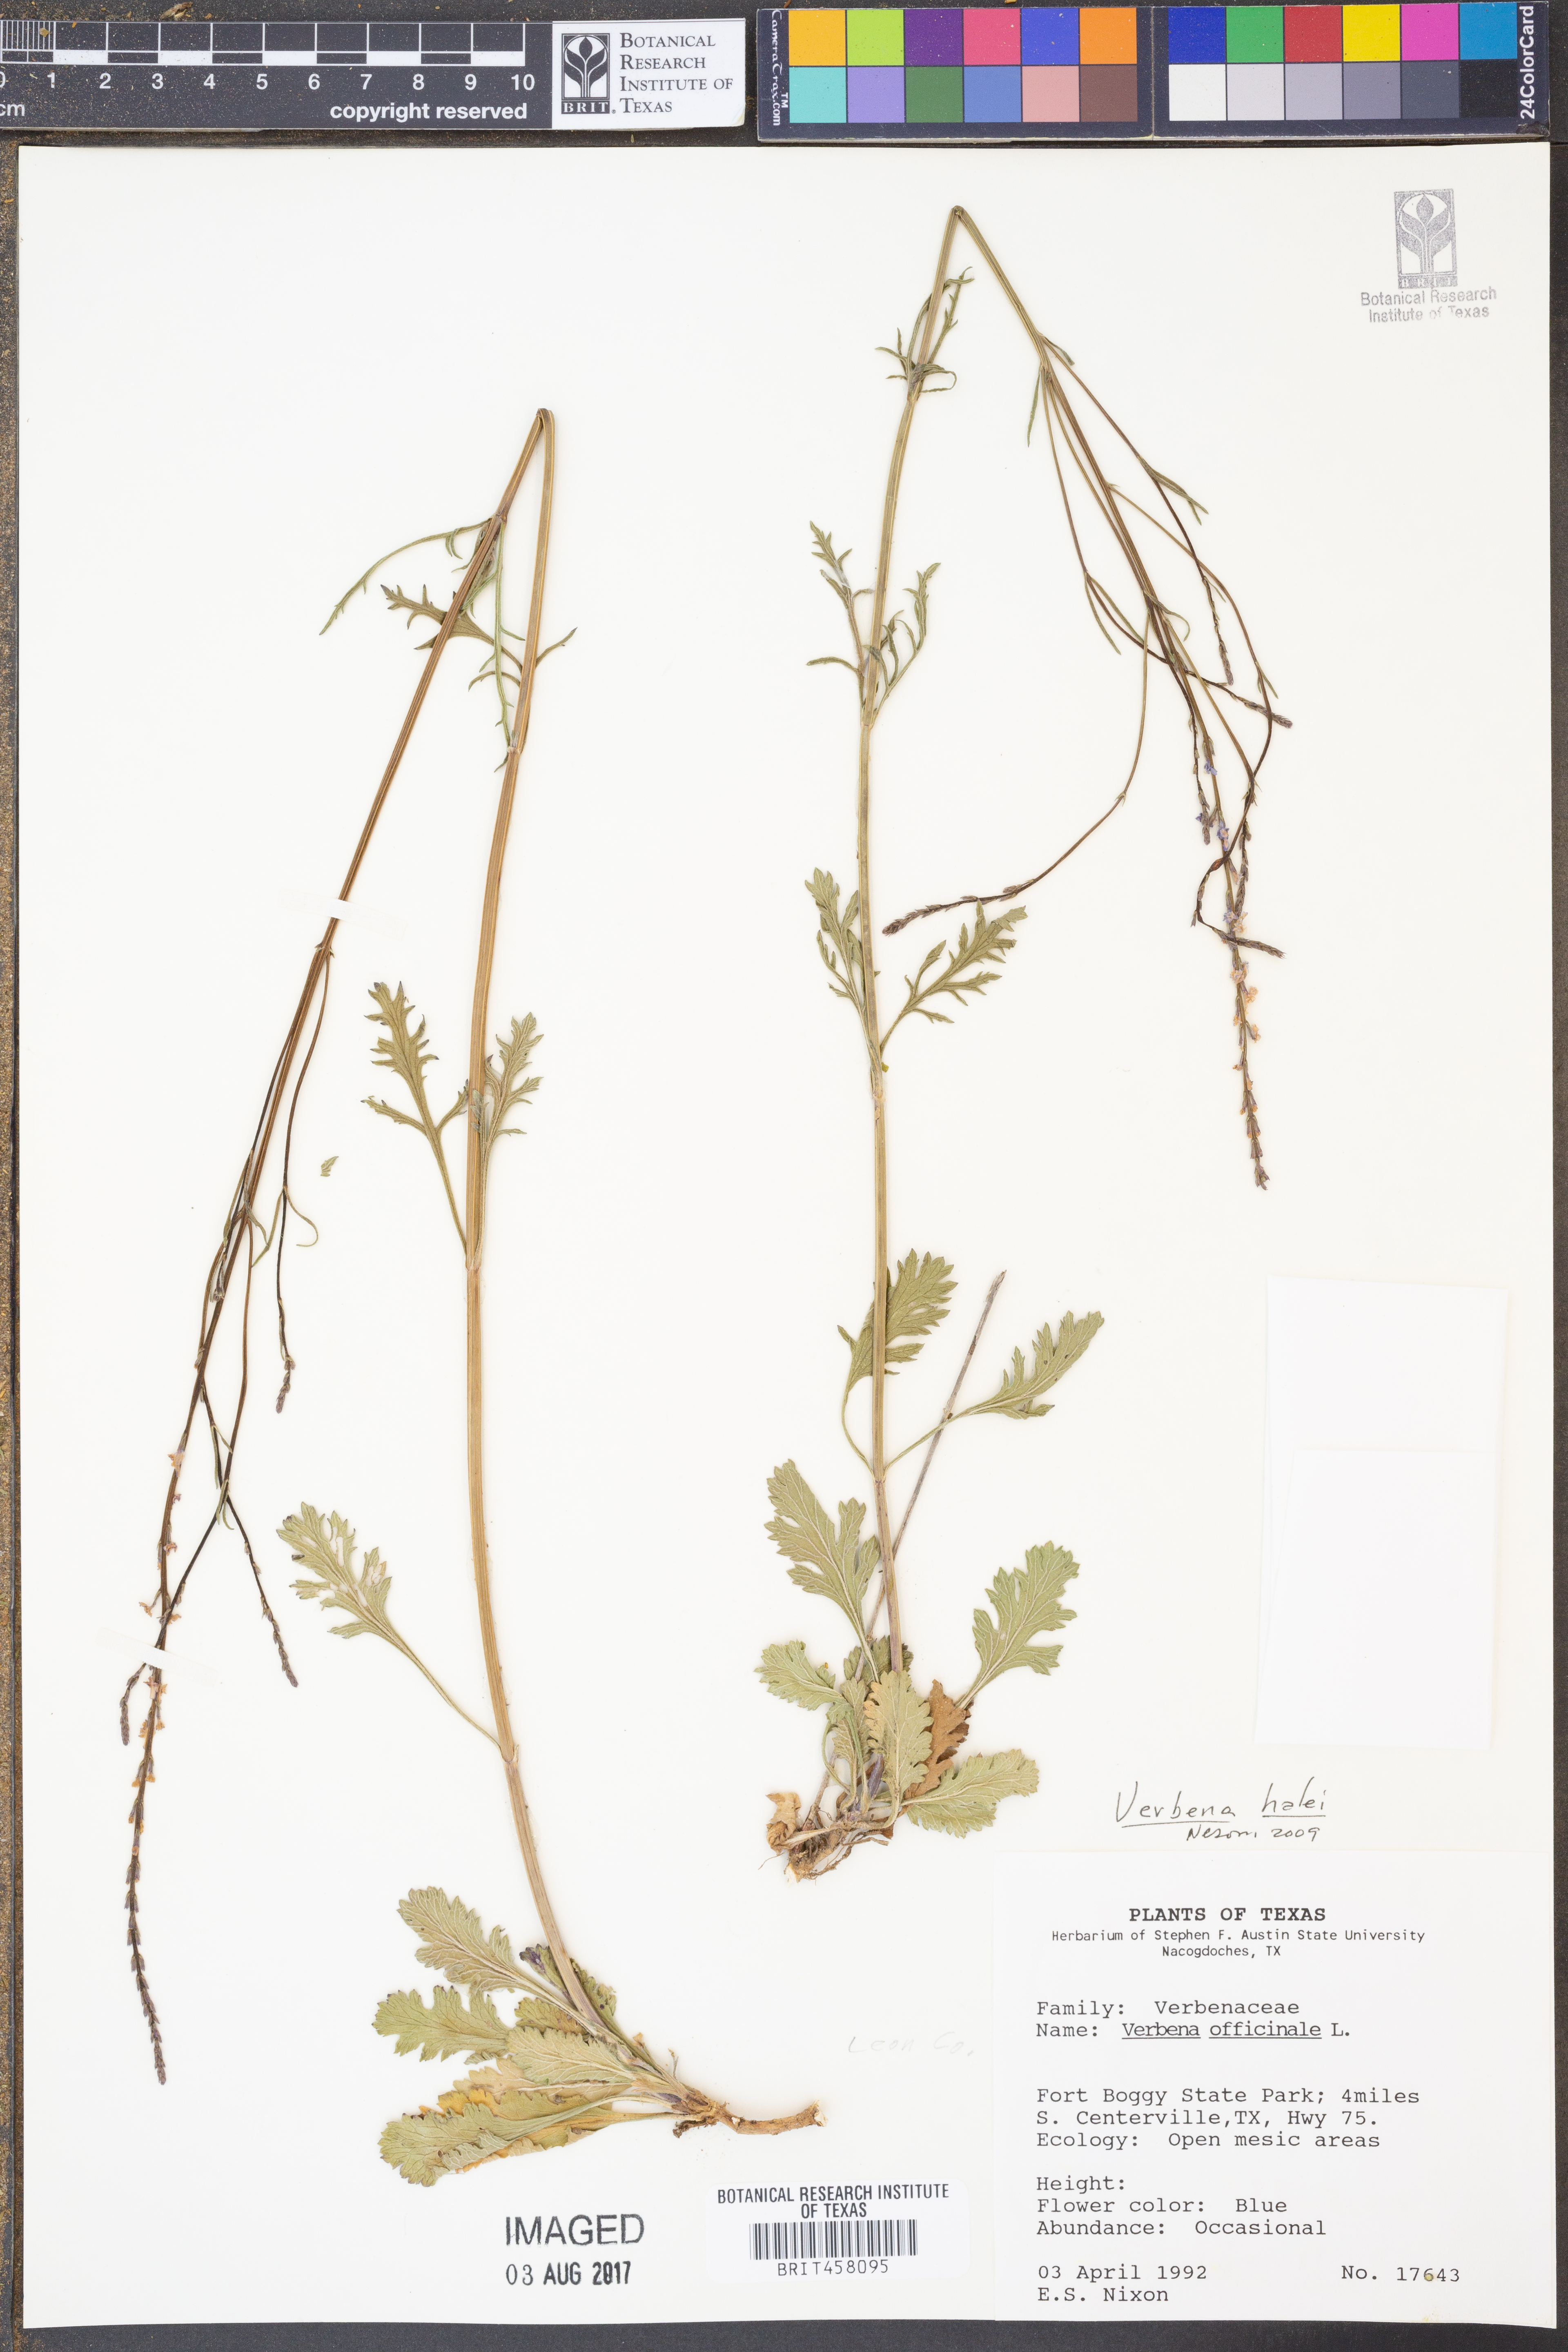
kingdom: Plantae
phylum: Tracheophyta
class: Magnoliopsida
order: Lamiales
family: Verbenaceae
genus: Verbena
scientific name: Verbena halei
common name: Texas vervain
